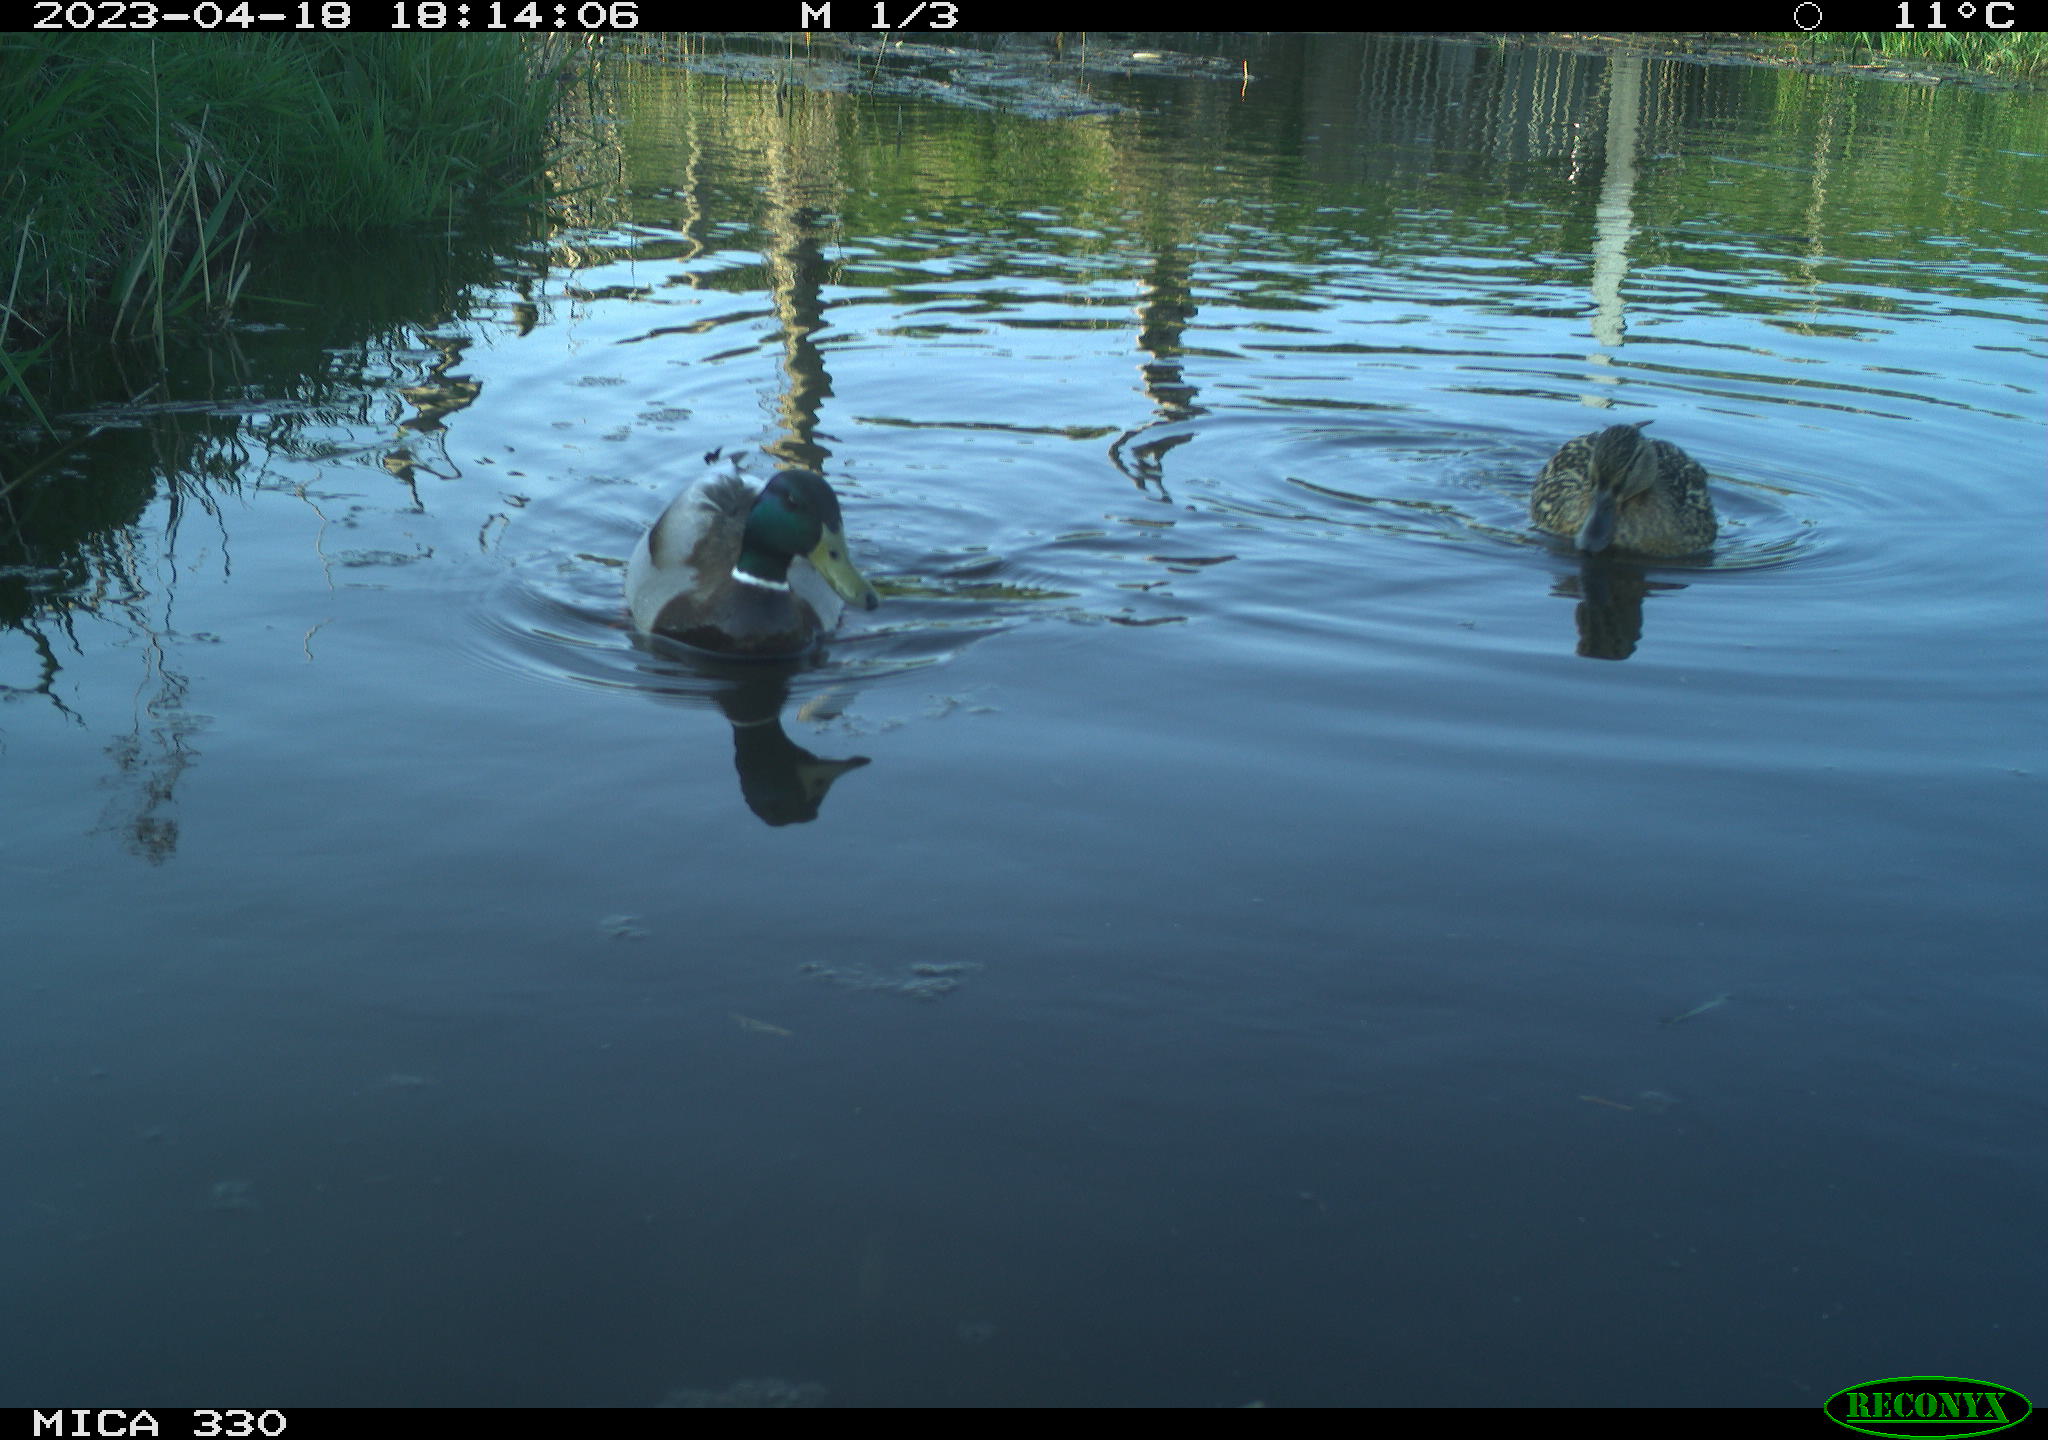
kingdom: Animalia
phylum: Chordata
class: Aves
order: Anseriformes
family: Anatidae
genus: Anas
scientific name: Anas
